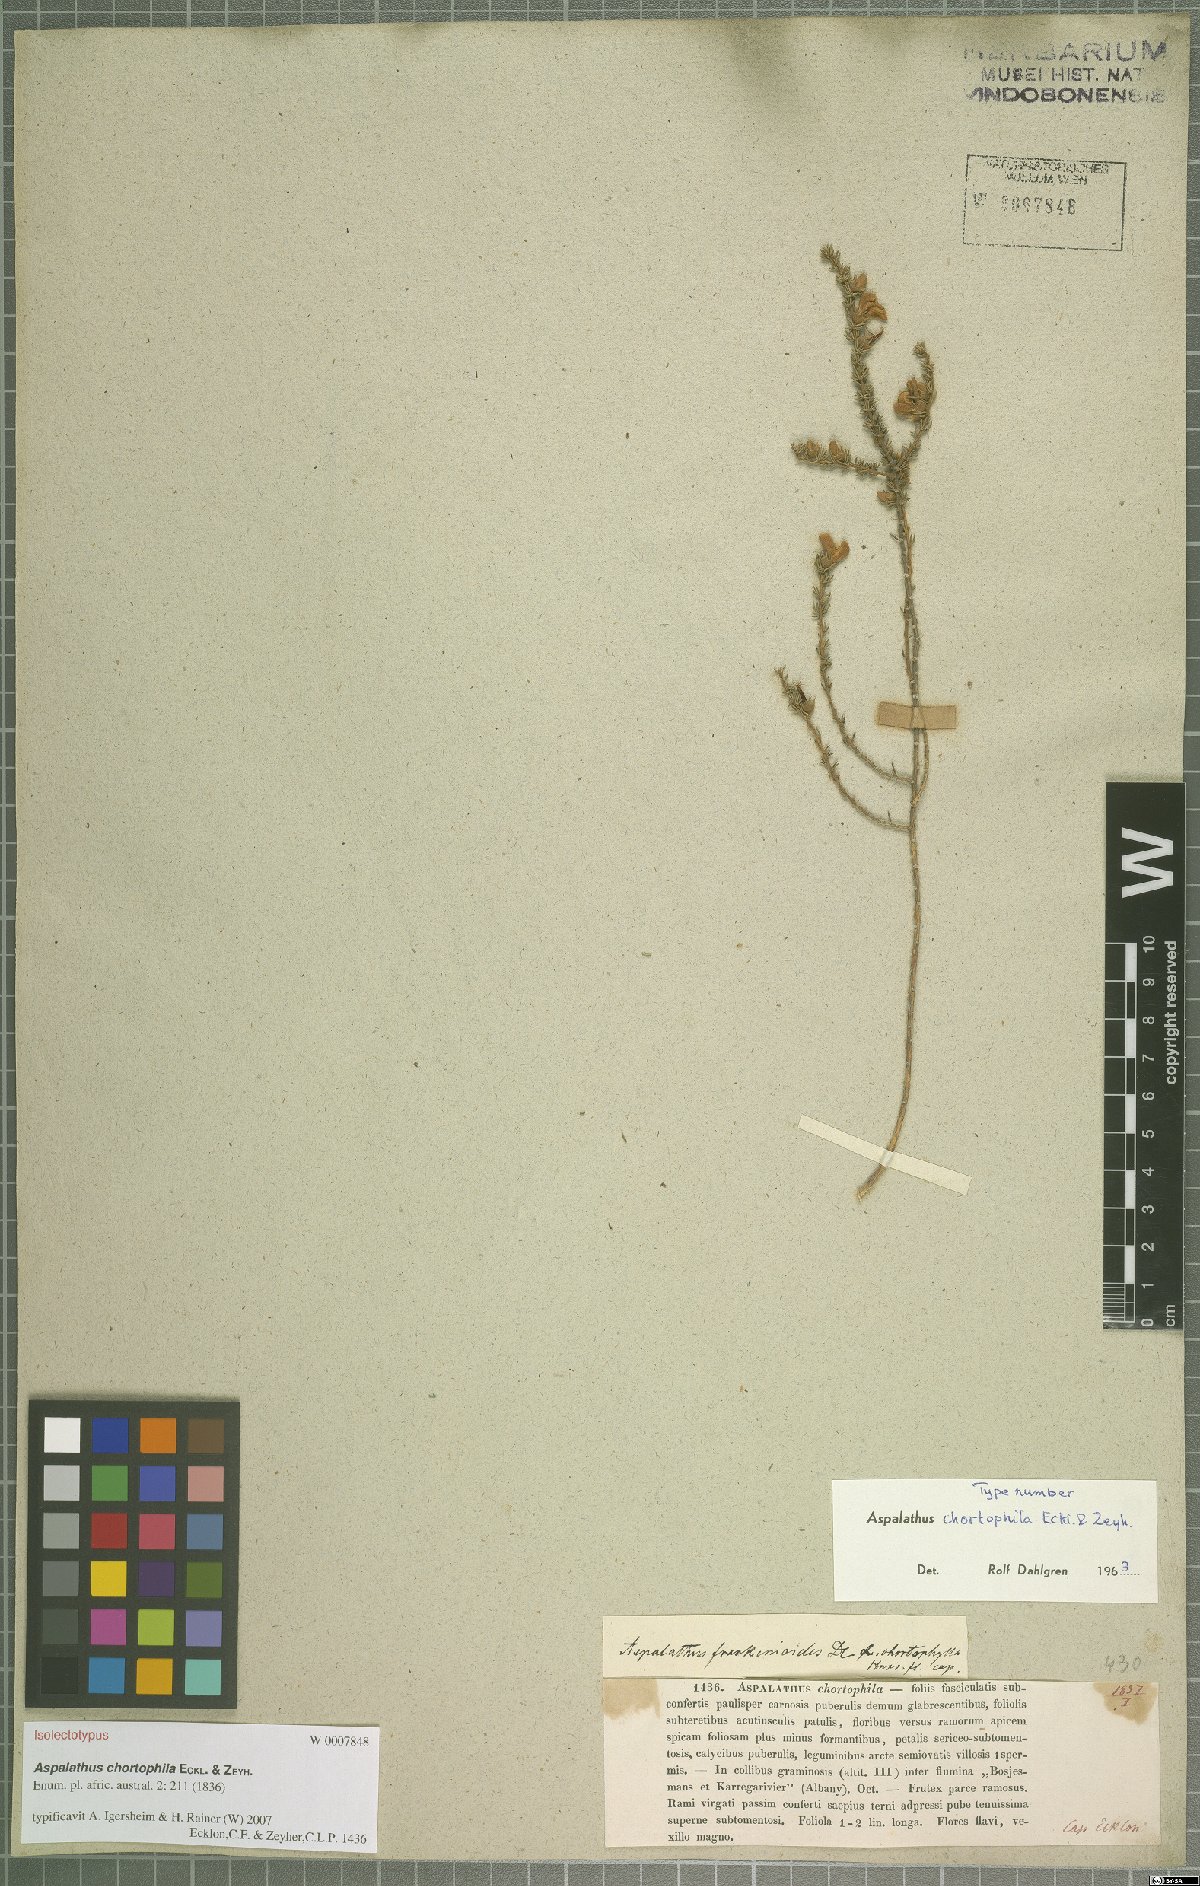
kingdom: Plantae
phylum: Tracheophyta
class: Magnoliopsida
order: Fabales
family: Fabaceae
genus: Aspalathus
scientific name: Aspalathus chortophila
